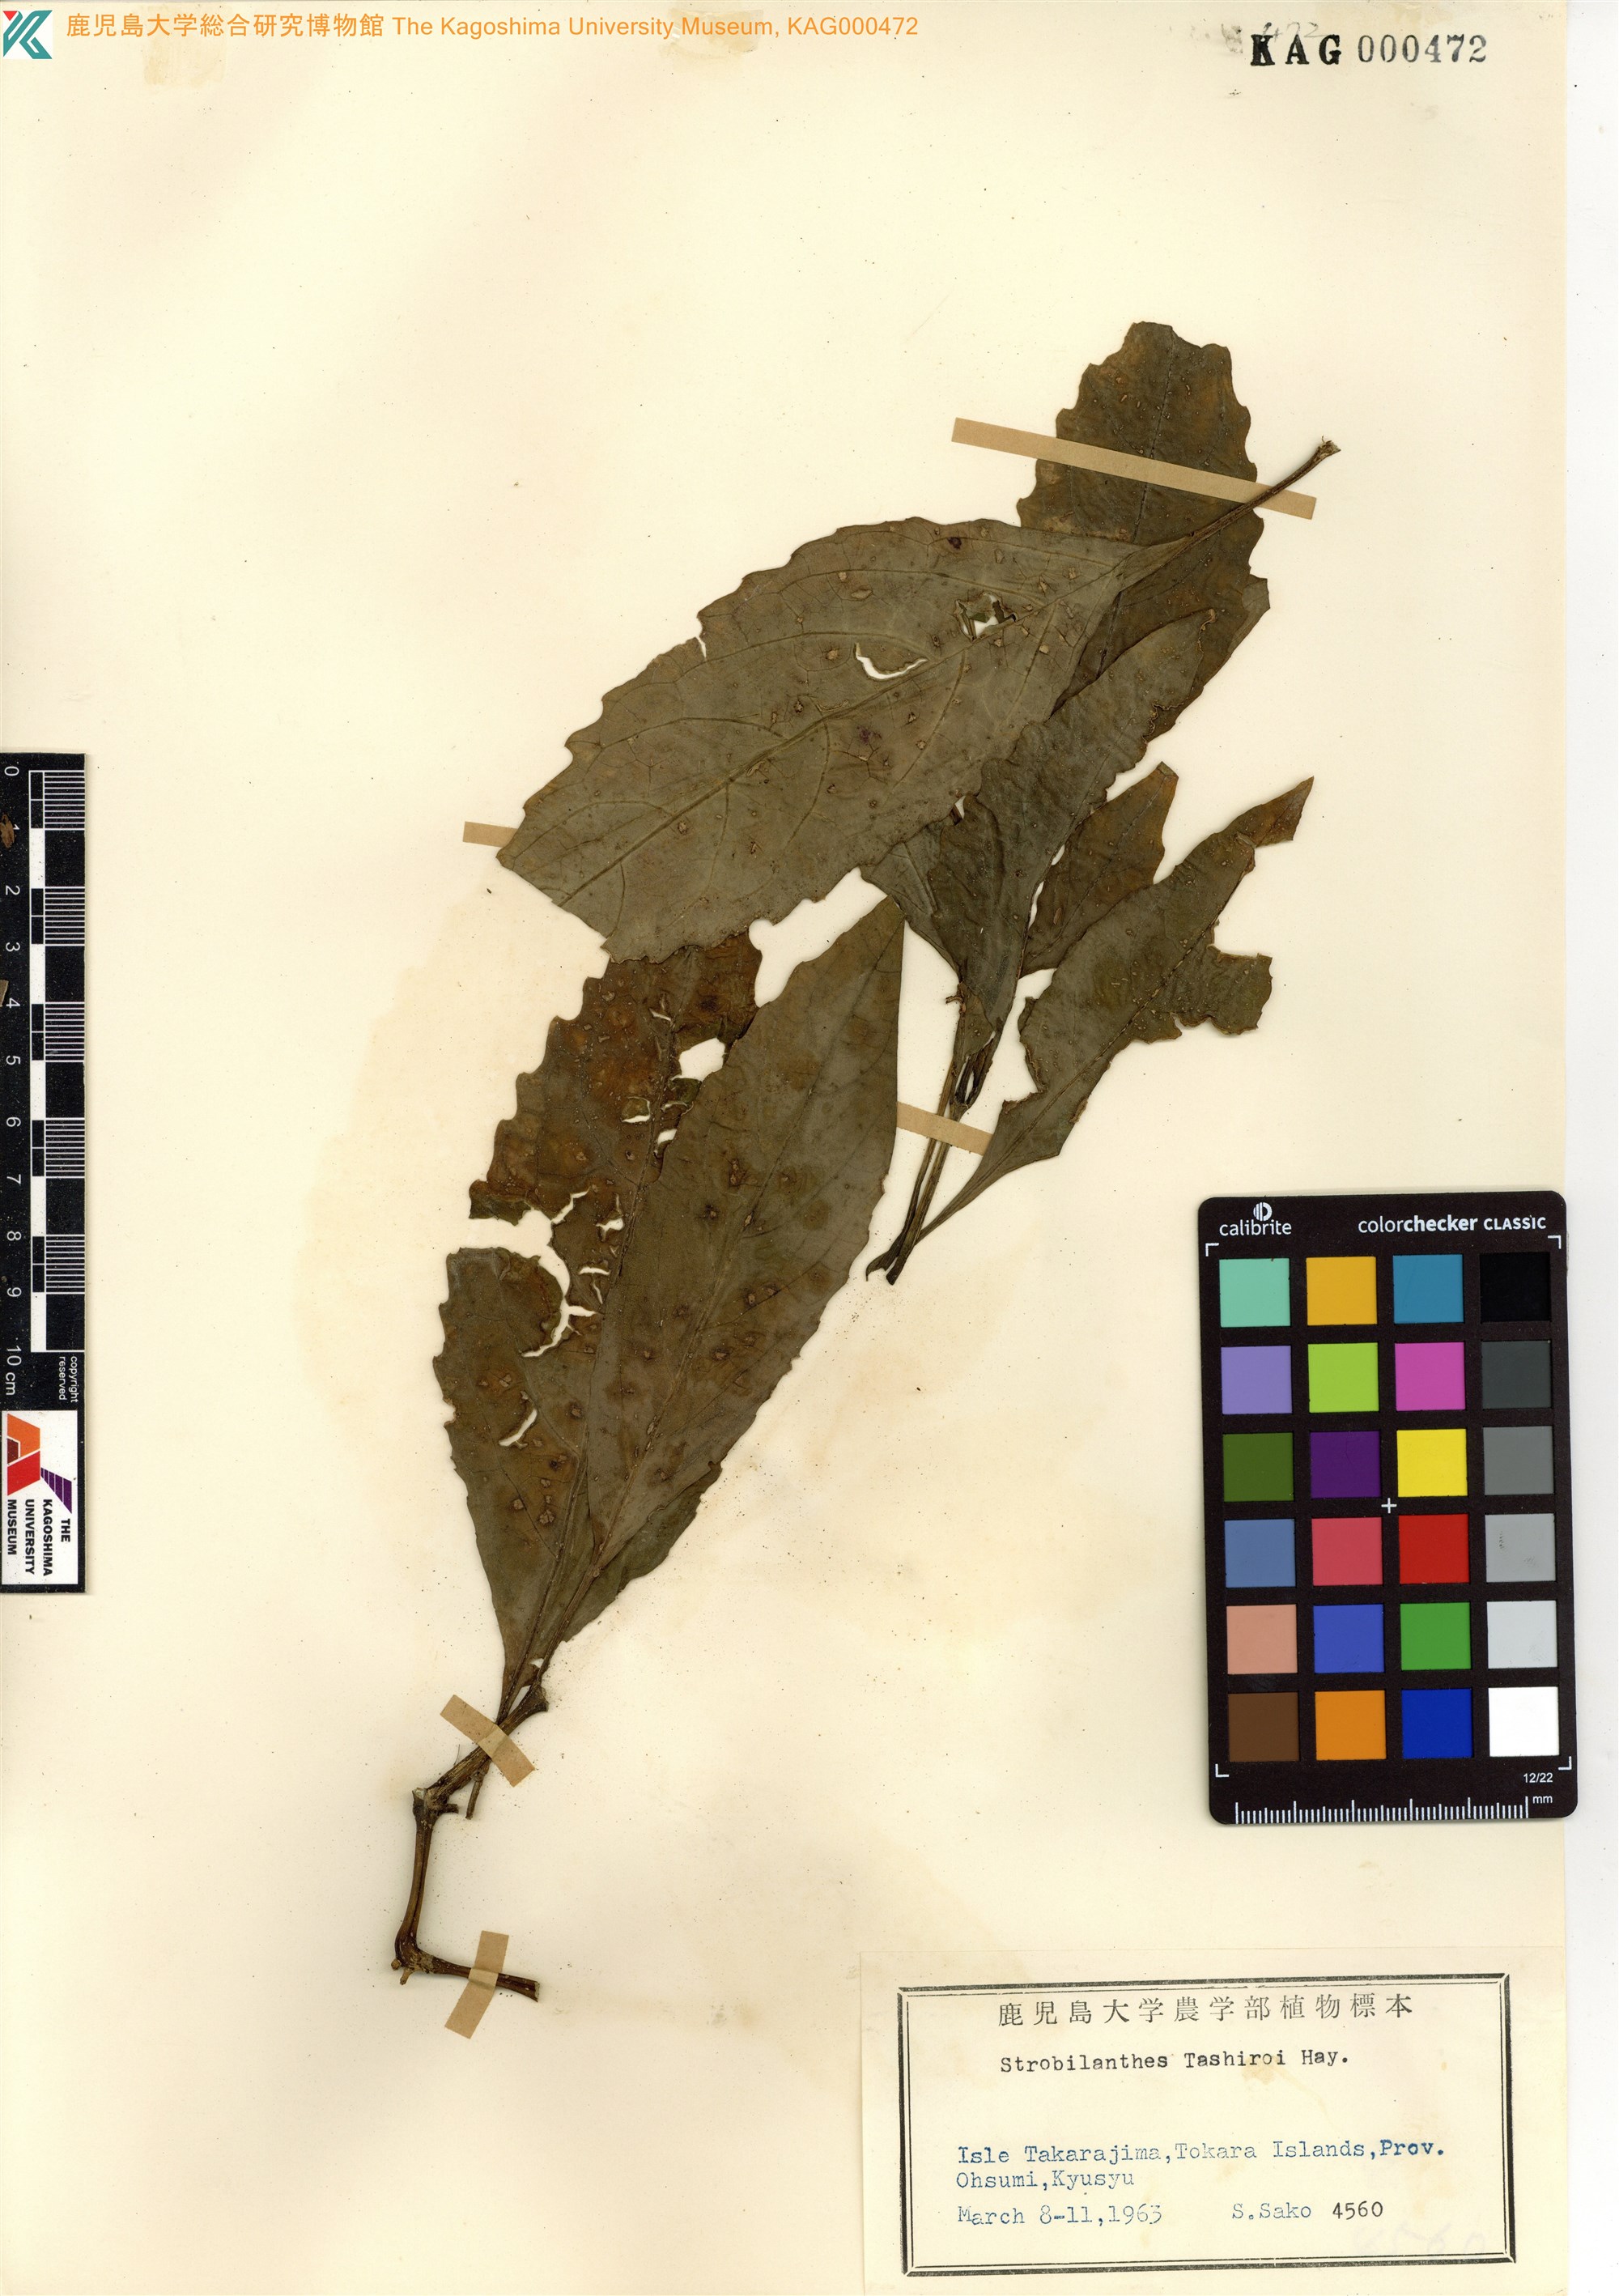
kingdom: Plantae
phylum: Tracheophyta
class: Magnoliopsida
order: Lamiales
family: Acanthaceae
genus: Strobilanthes
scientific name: Strobilanthes flexicaulis
